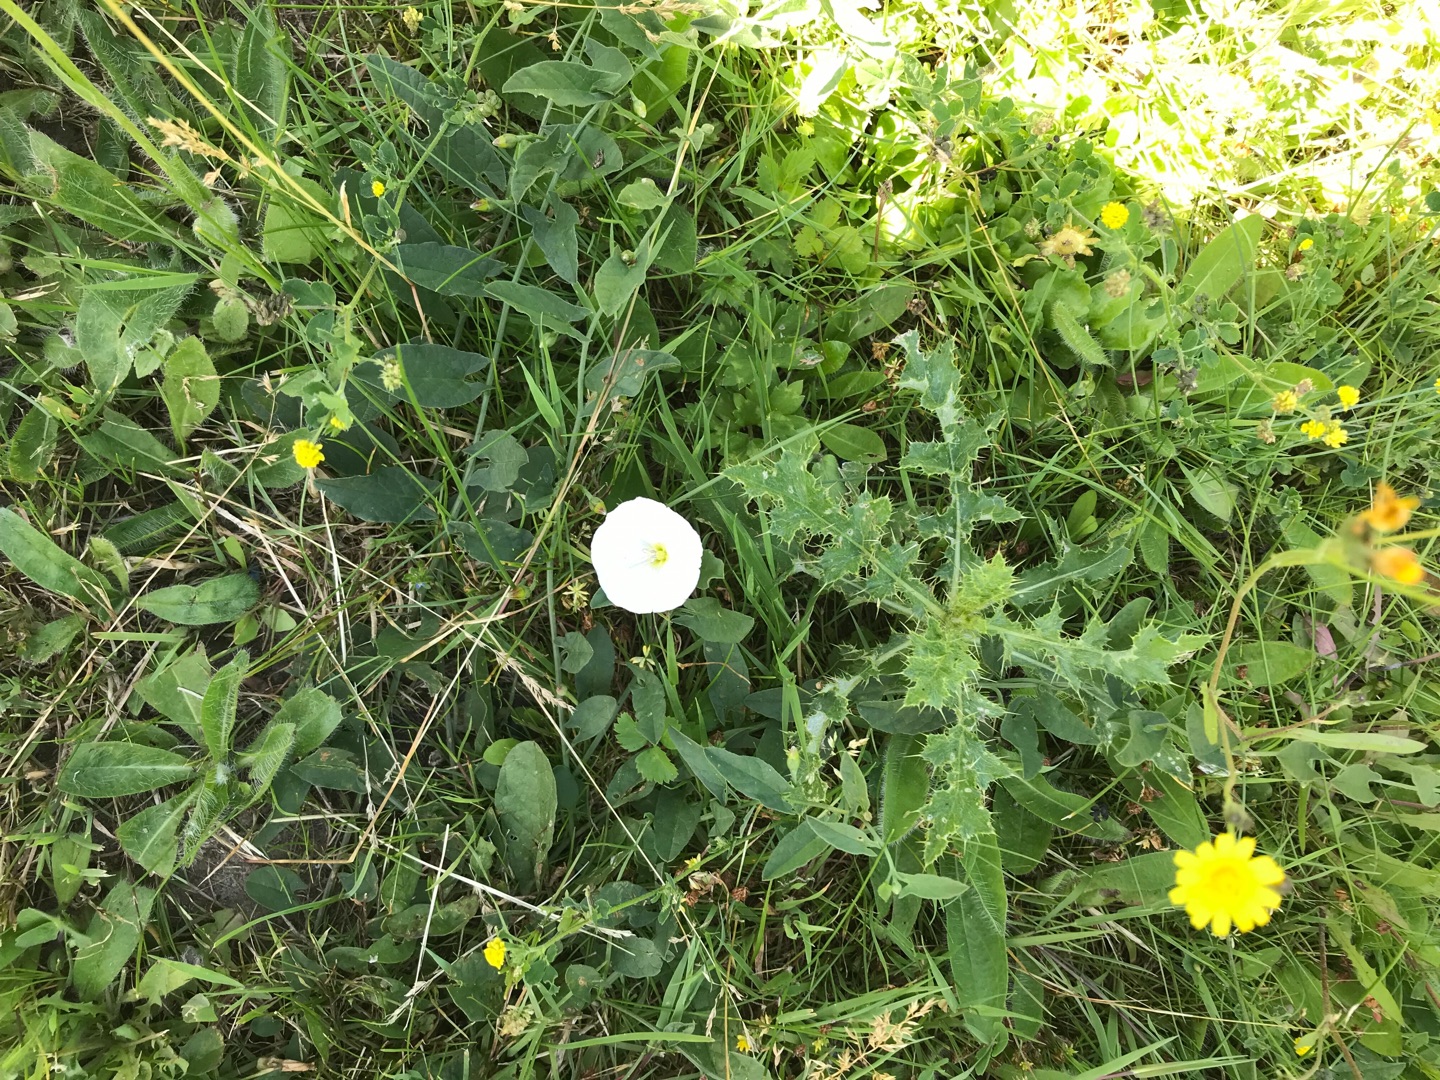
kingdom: Plantae
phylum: Tracheophyta
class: Magnoliopsida
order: Solanales
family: Convolvulaceae
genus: Convolvulus
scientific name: Convolvulus arvensis
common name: Ager-snerle
